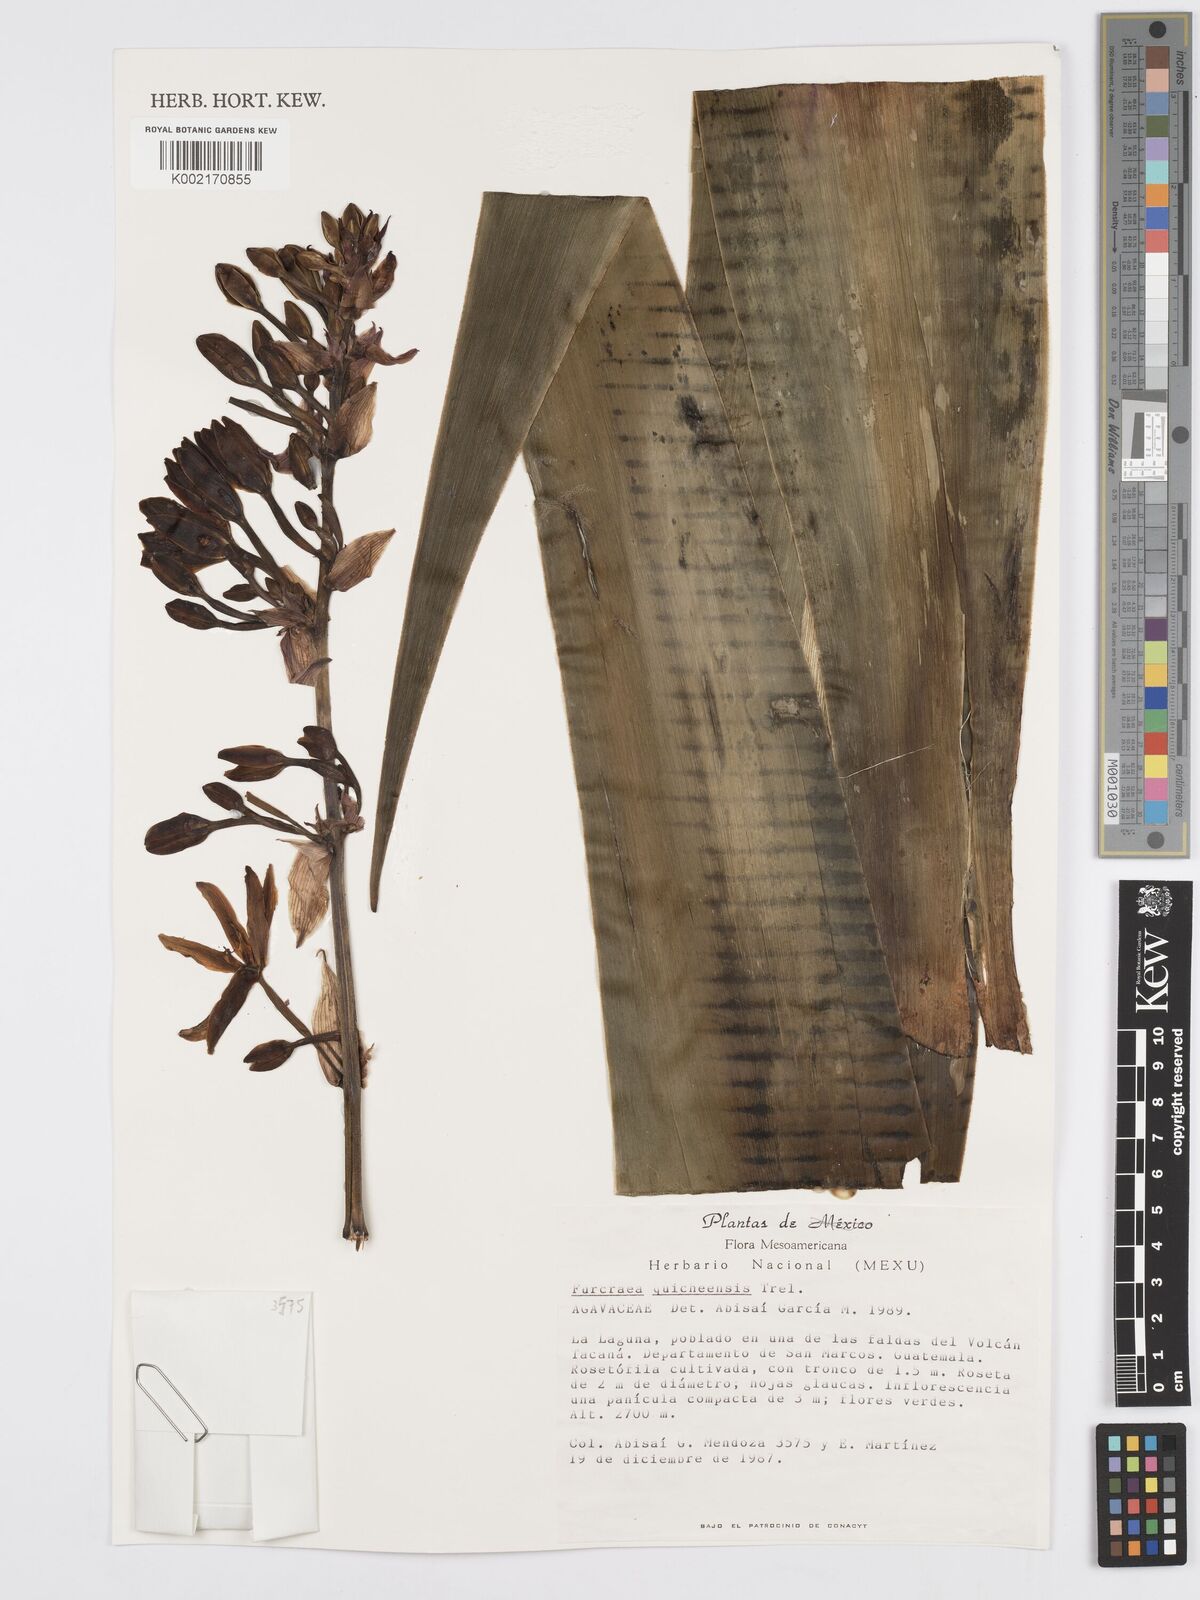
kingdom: Plantae
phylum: Tracheophyta
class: Liliopsida
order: Asparagales
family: Asparagaceae
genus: Furcraea
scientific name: Furcraea quicheensis
